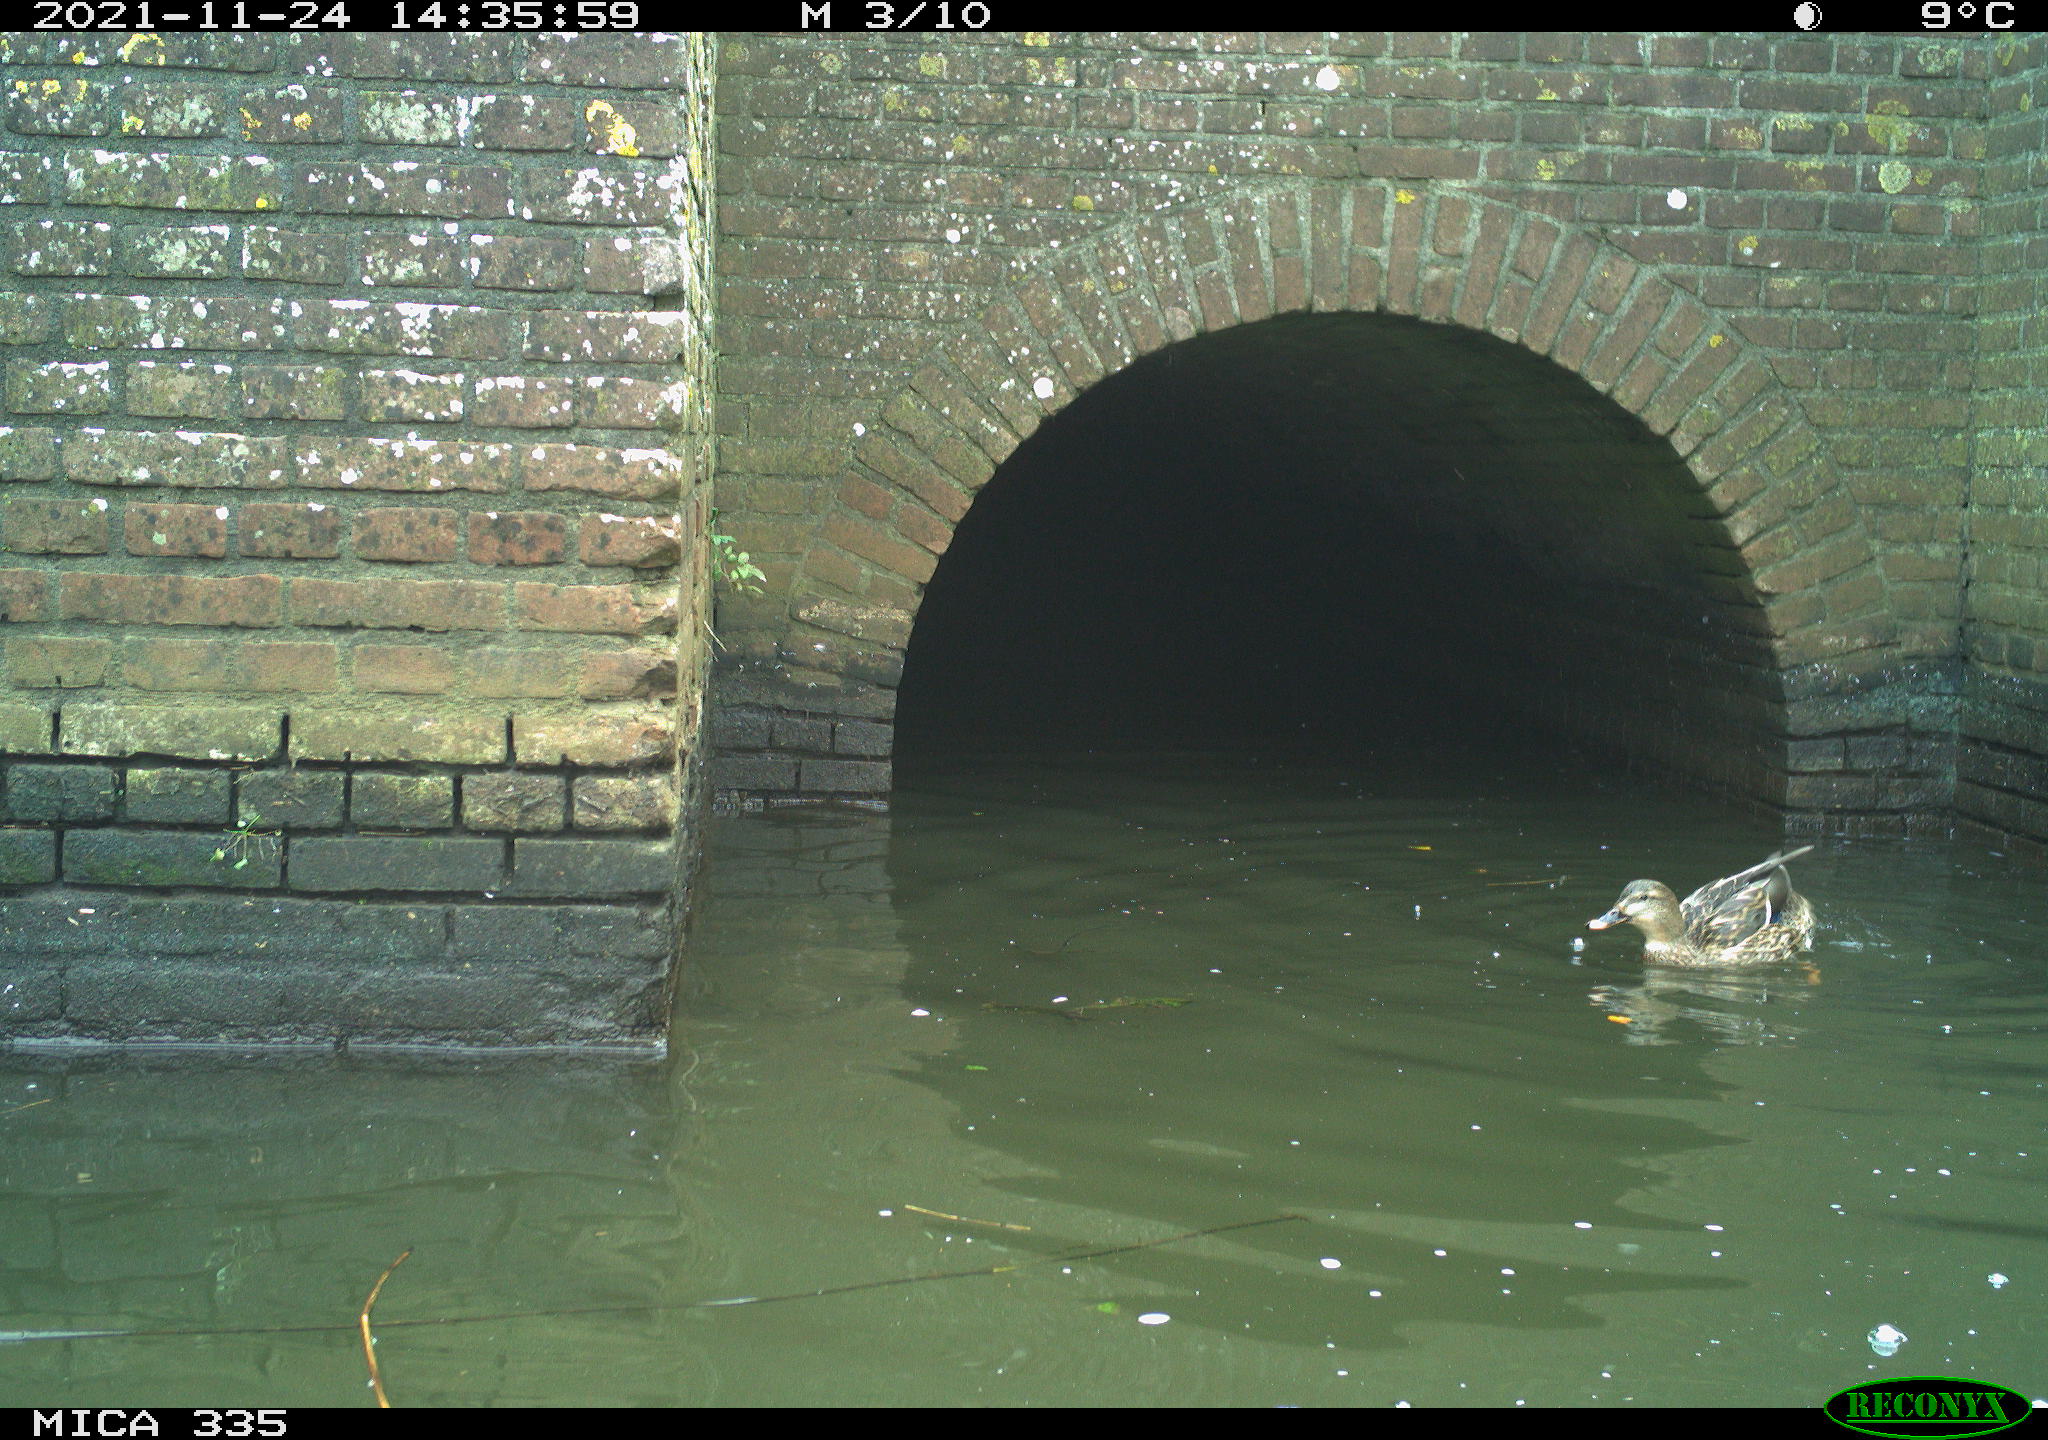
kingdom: Animalia
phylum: Chordata
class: Aves
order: Anseriformes
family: Anatidae
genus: Anas
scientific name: Anas platyrhynchos
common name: Mallard
